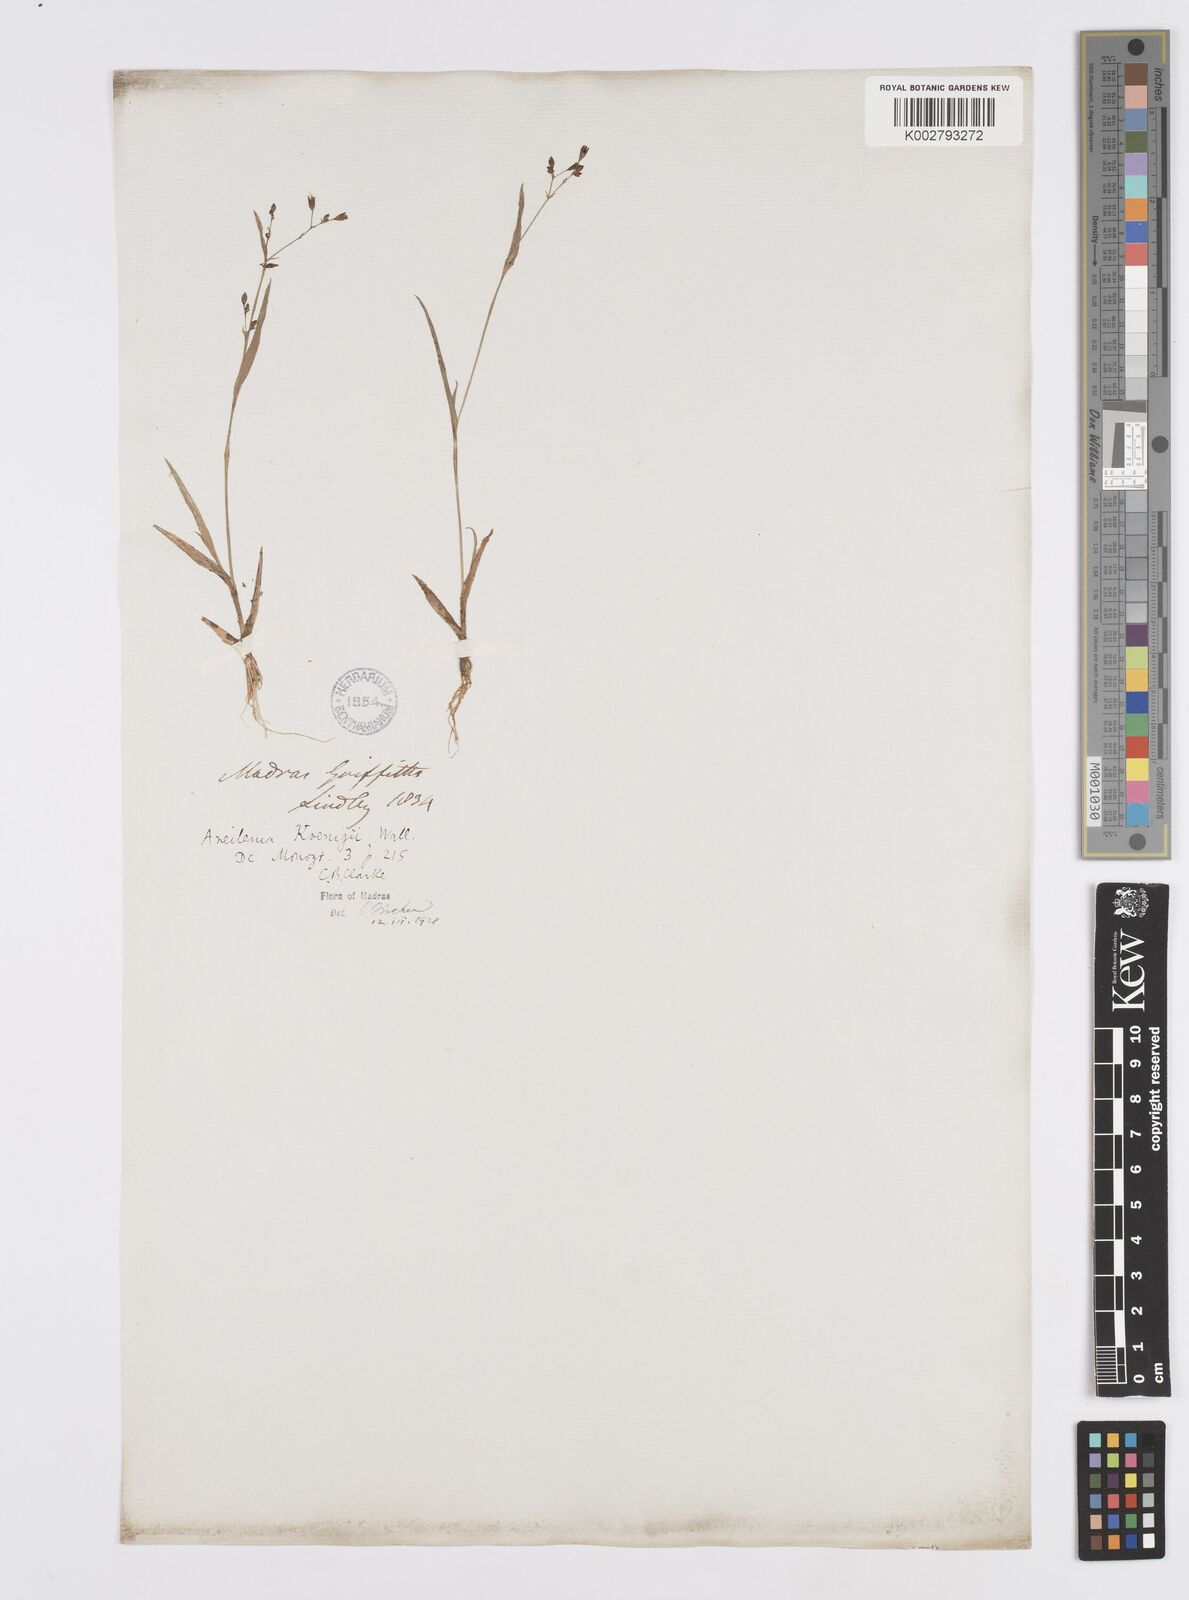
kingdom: Plantae
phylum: Tracheophyta
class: Liliopsida
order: Commelinales
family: Commelinaceae
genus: Murdannia
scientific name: Murdannia lanceolata
